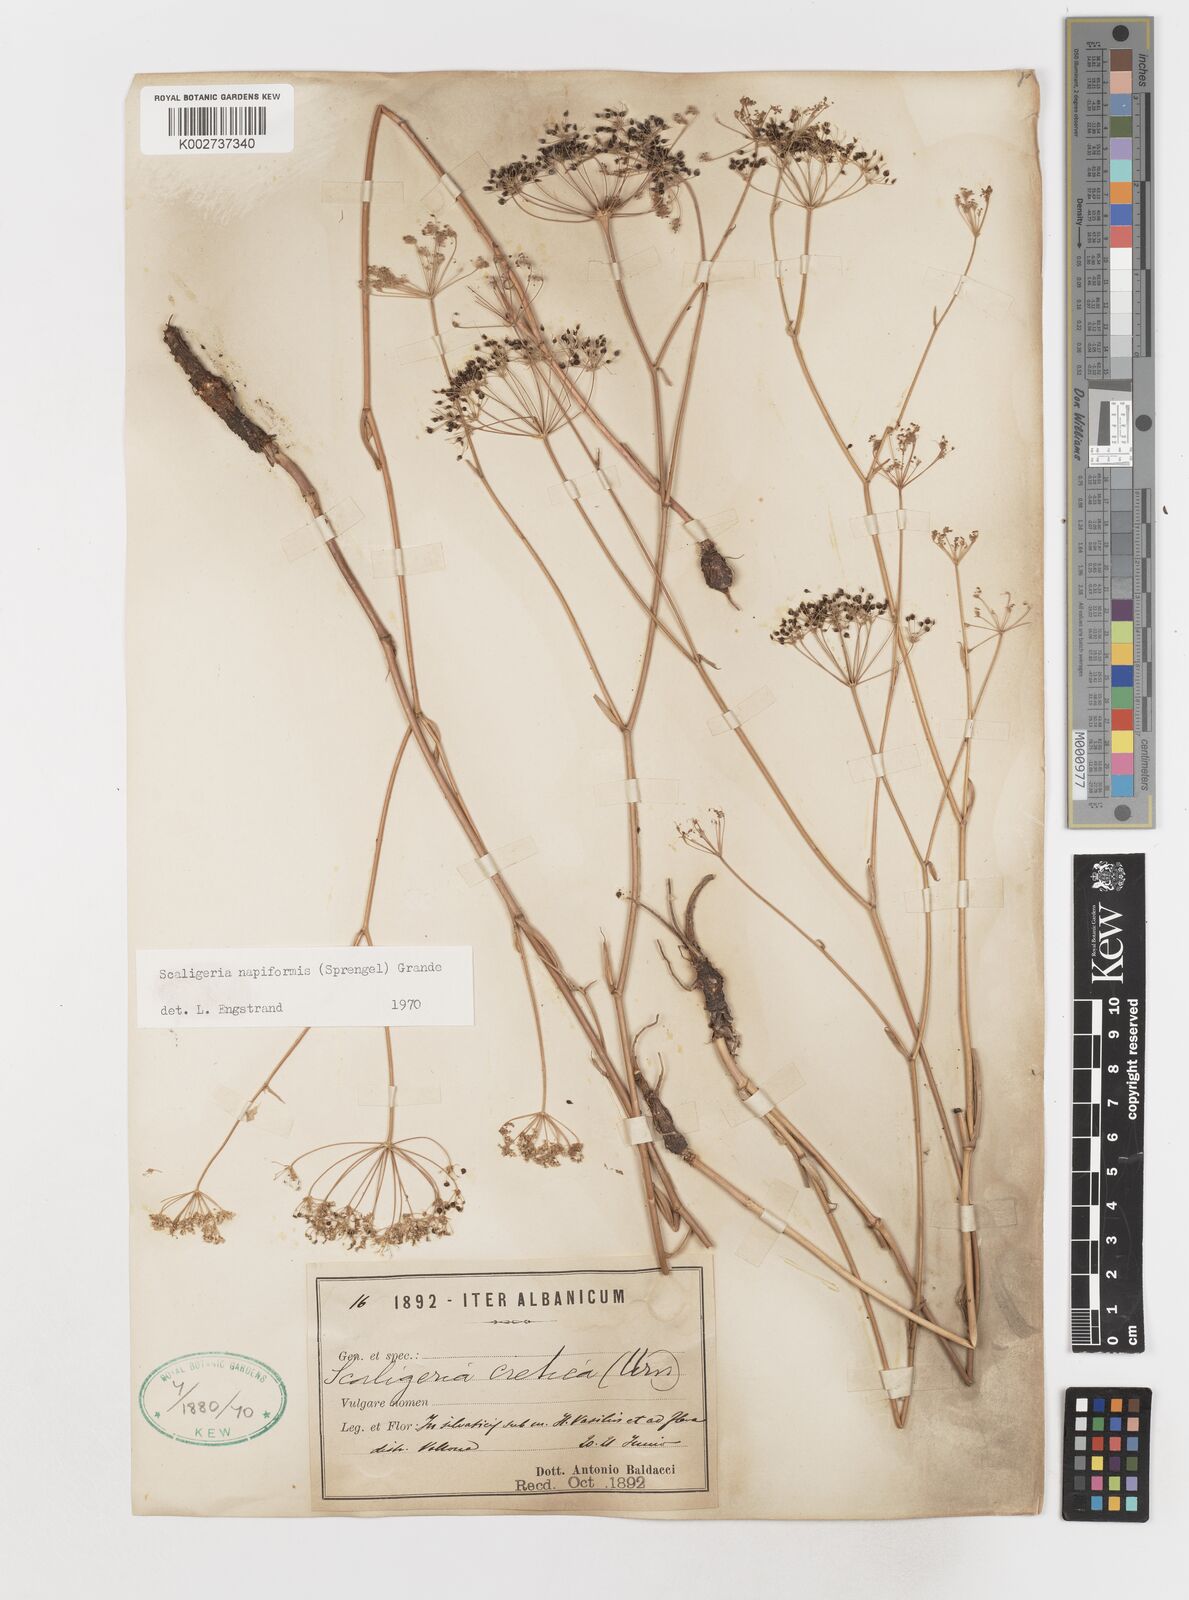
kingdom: Plantae
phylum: Tracheophyta
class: Magnoliopsida
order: Apiales
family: Apiaceae
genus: Scaligeria
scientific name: Scaligeria napiformis
